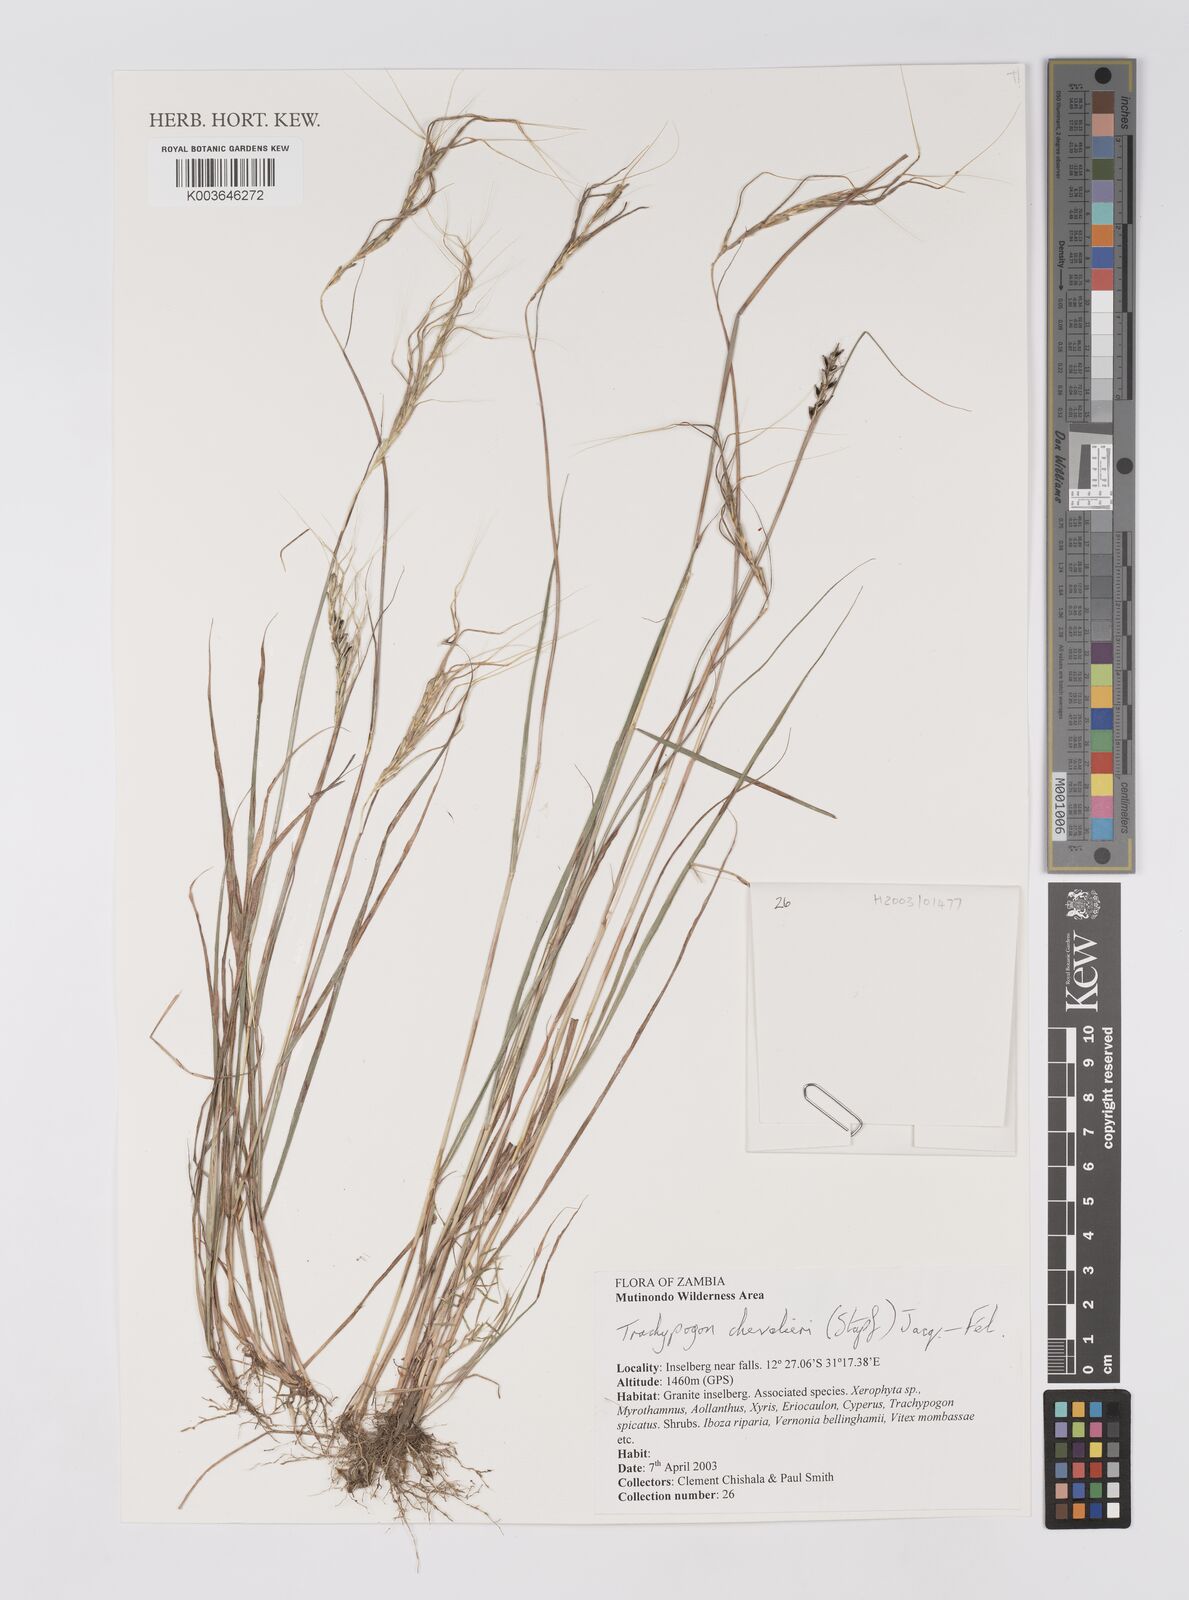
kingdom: Plantae
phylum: Tracheophyta
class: Liliopsida
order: Poales
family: Poaceae
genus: Trachypogon
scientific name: Trachypogon chevalieri
